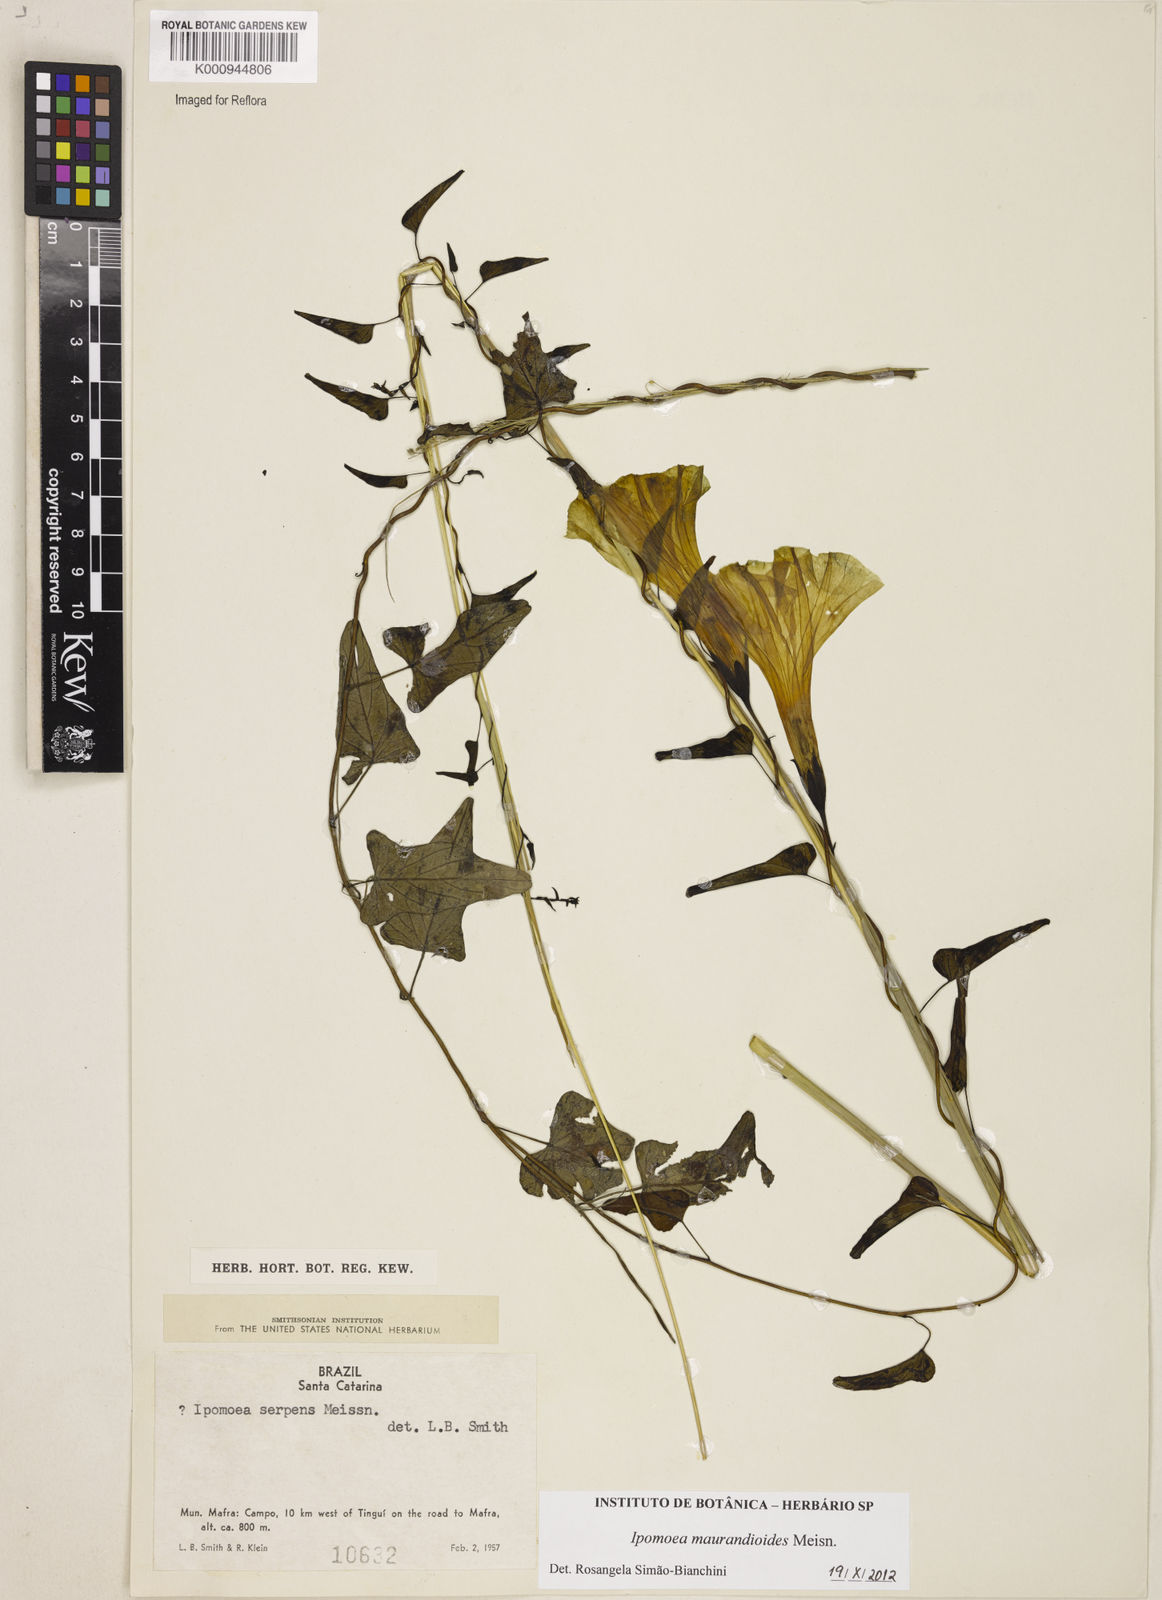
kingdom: Plantae
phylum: Tracheophyta
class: Magnoliopsida
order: Solanales
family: Convolvulaceae
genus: Ipomoea
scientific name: Ipomoea maurandioides
